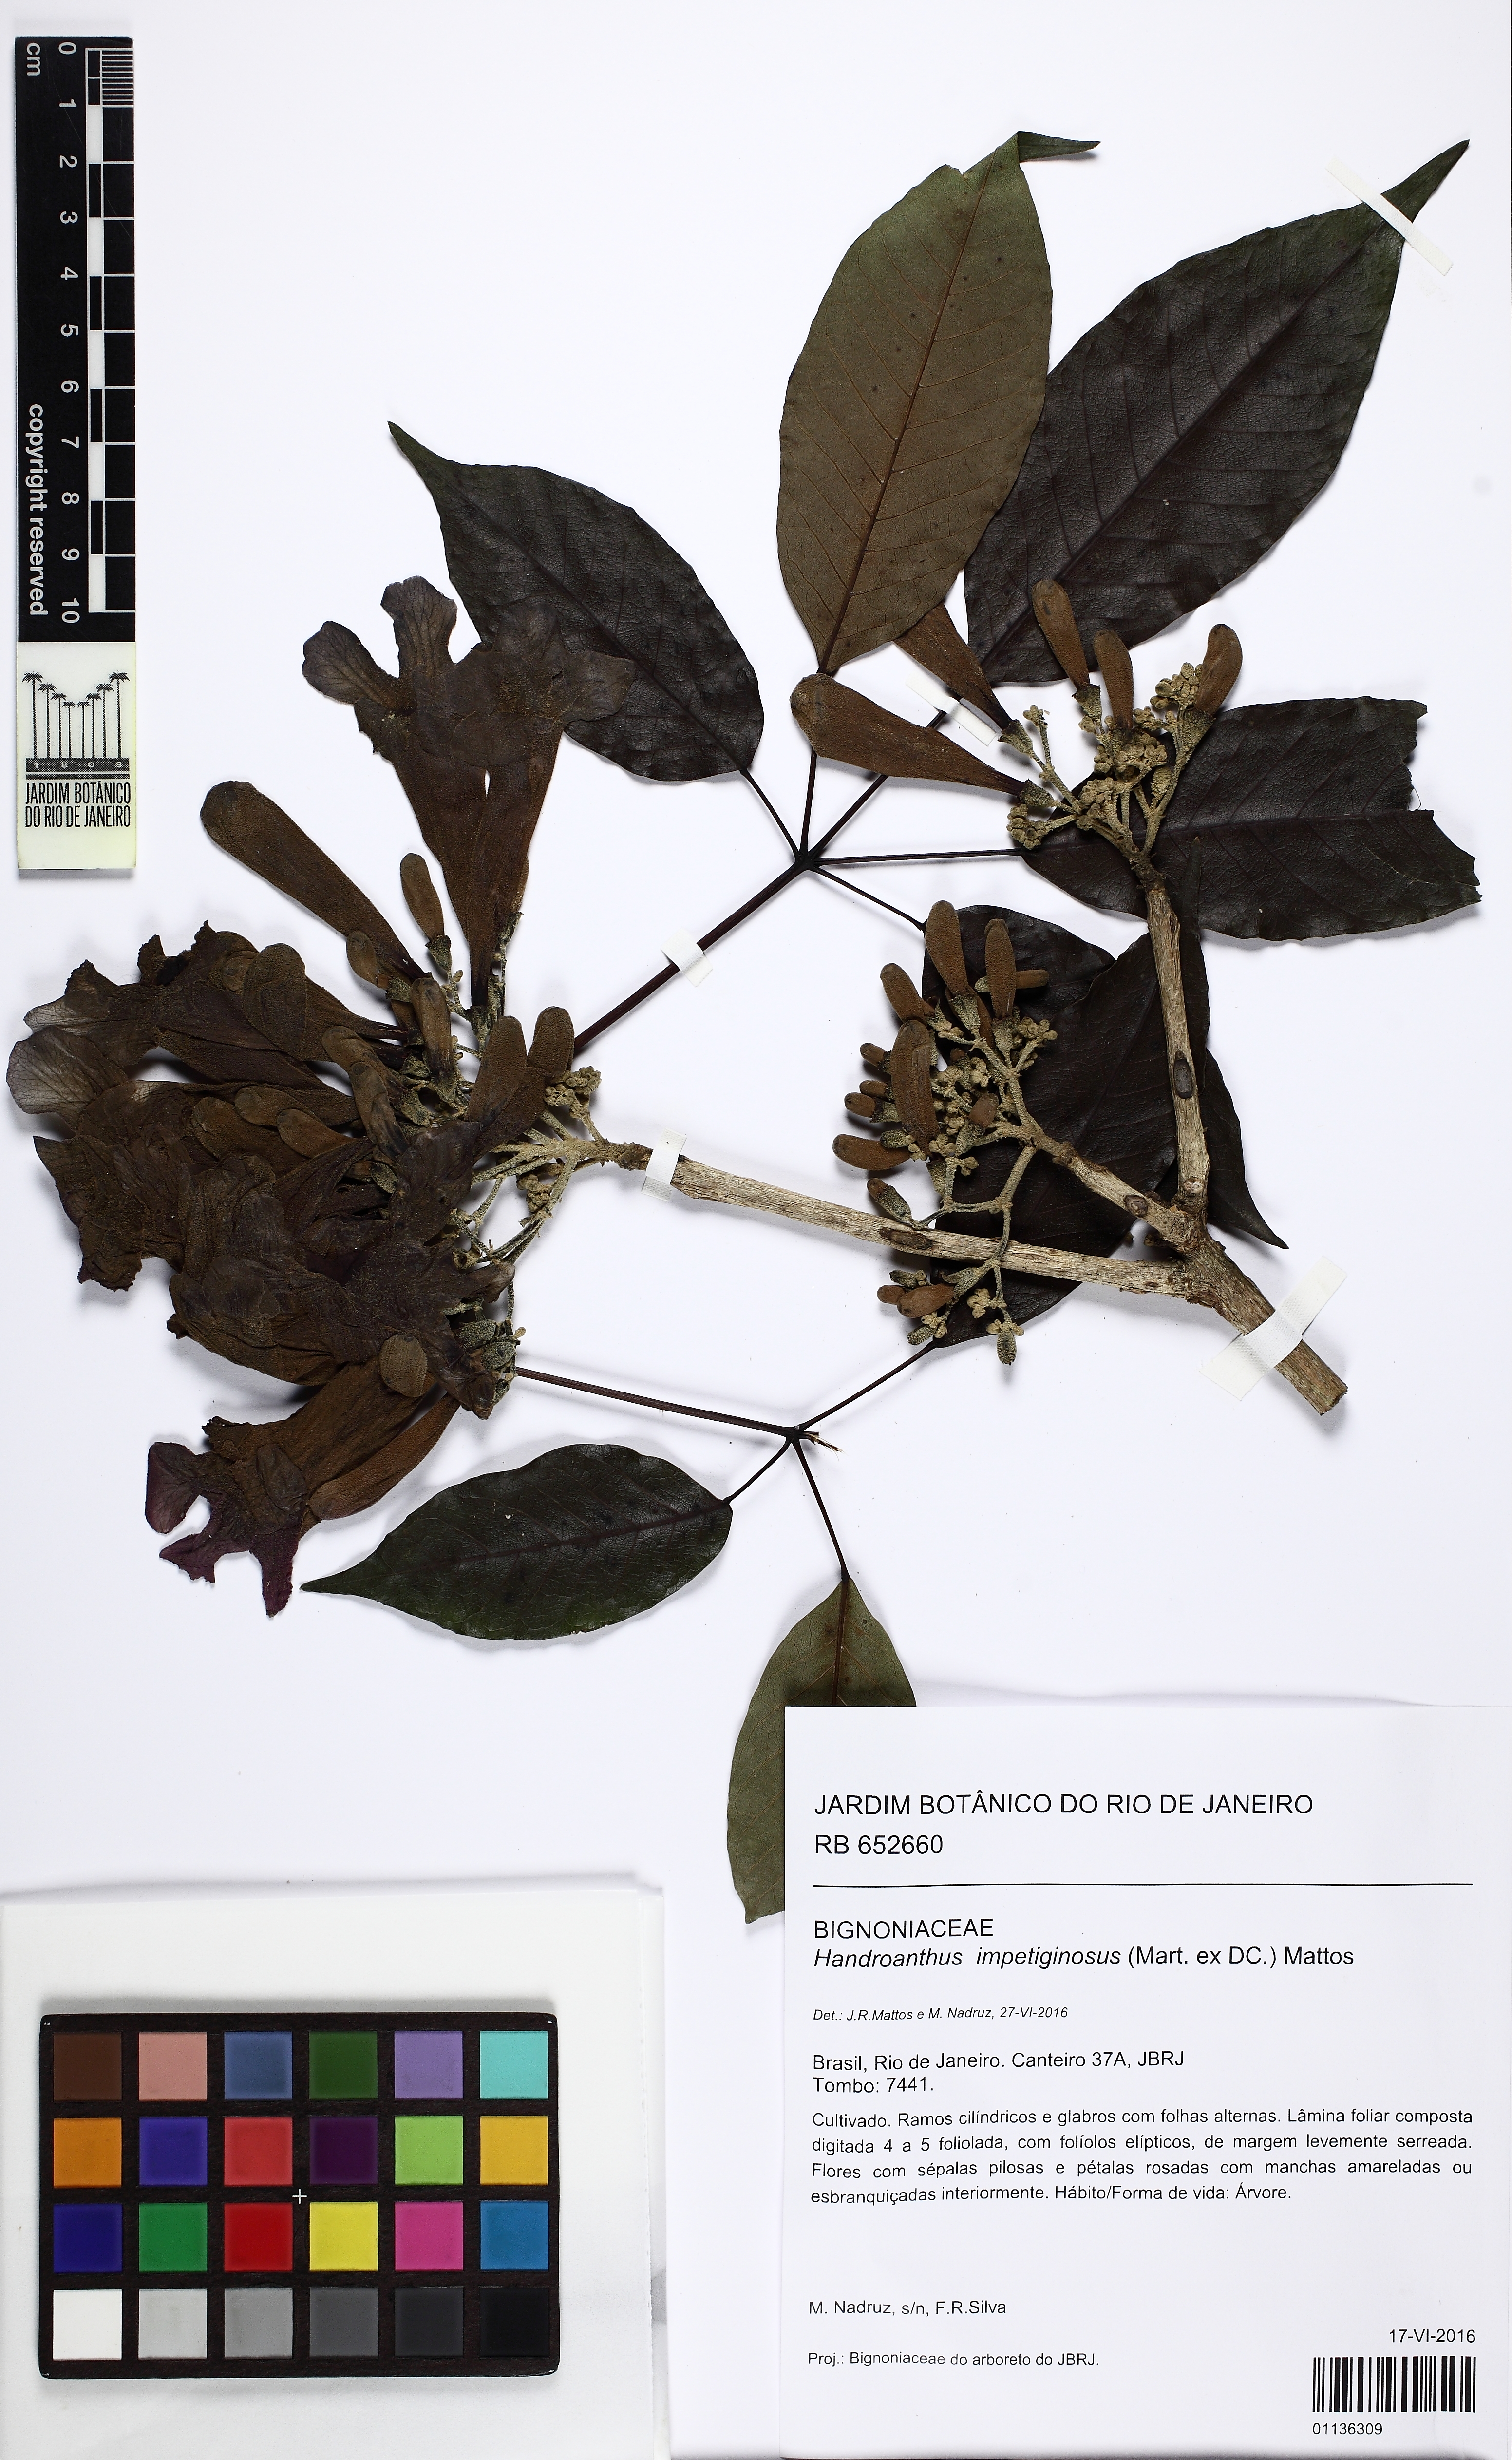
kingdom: Plantae
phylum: Tracheophyta
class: Magnoliopsida
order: Lamiales
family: Bignoniaceae
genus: Handroanthus
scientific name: Handroanthus impetiginosum
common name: Pink trumpet tree
